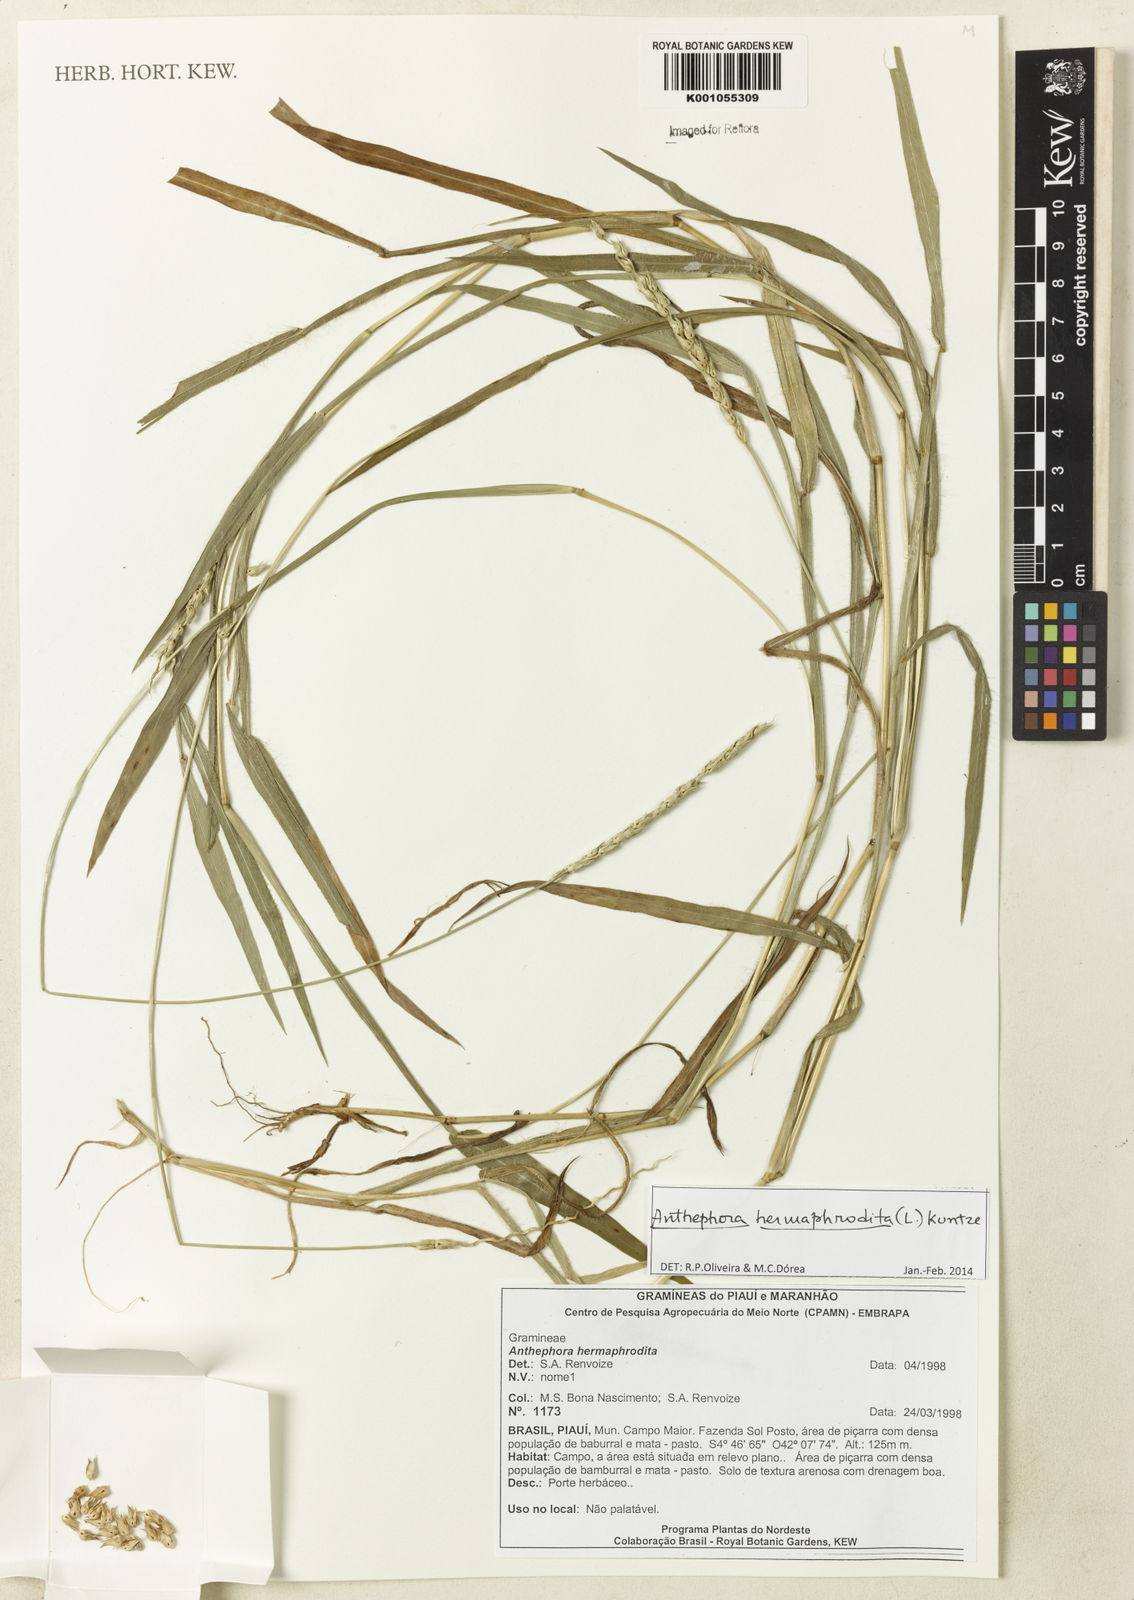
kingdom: Plantae
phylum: Tracheophyta
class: Liliopsida
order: Poales
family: Poaceae
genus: Anthephora
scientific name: Anthephora hermaphrodita
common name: Oldfield grass
